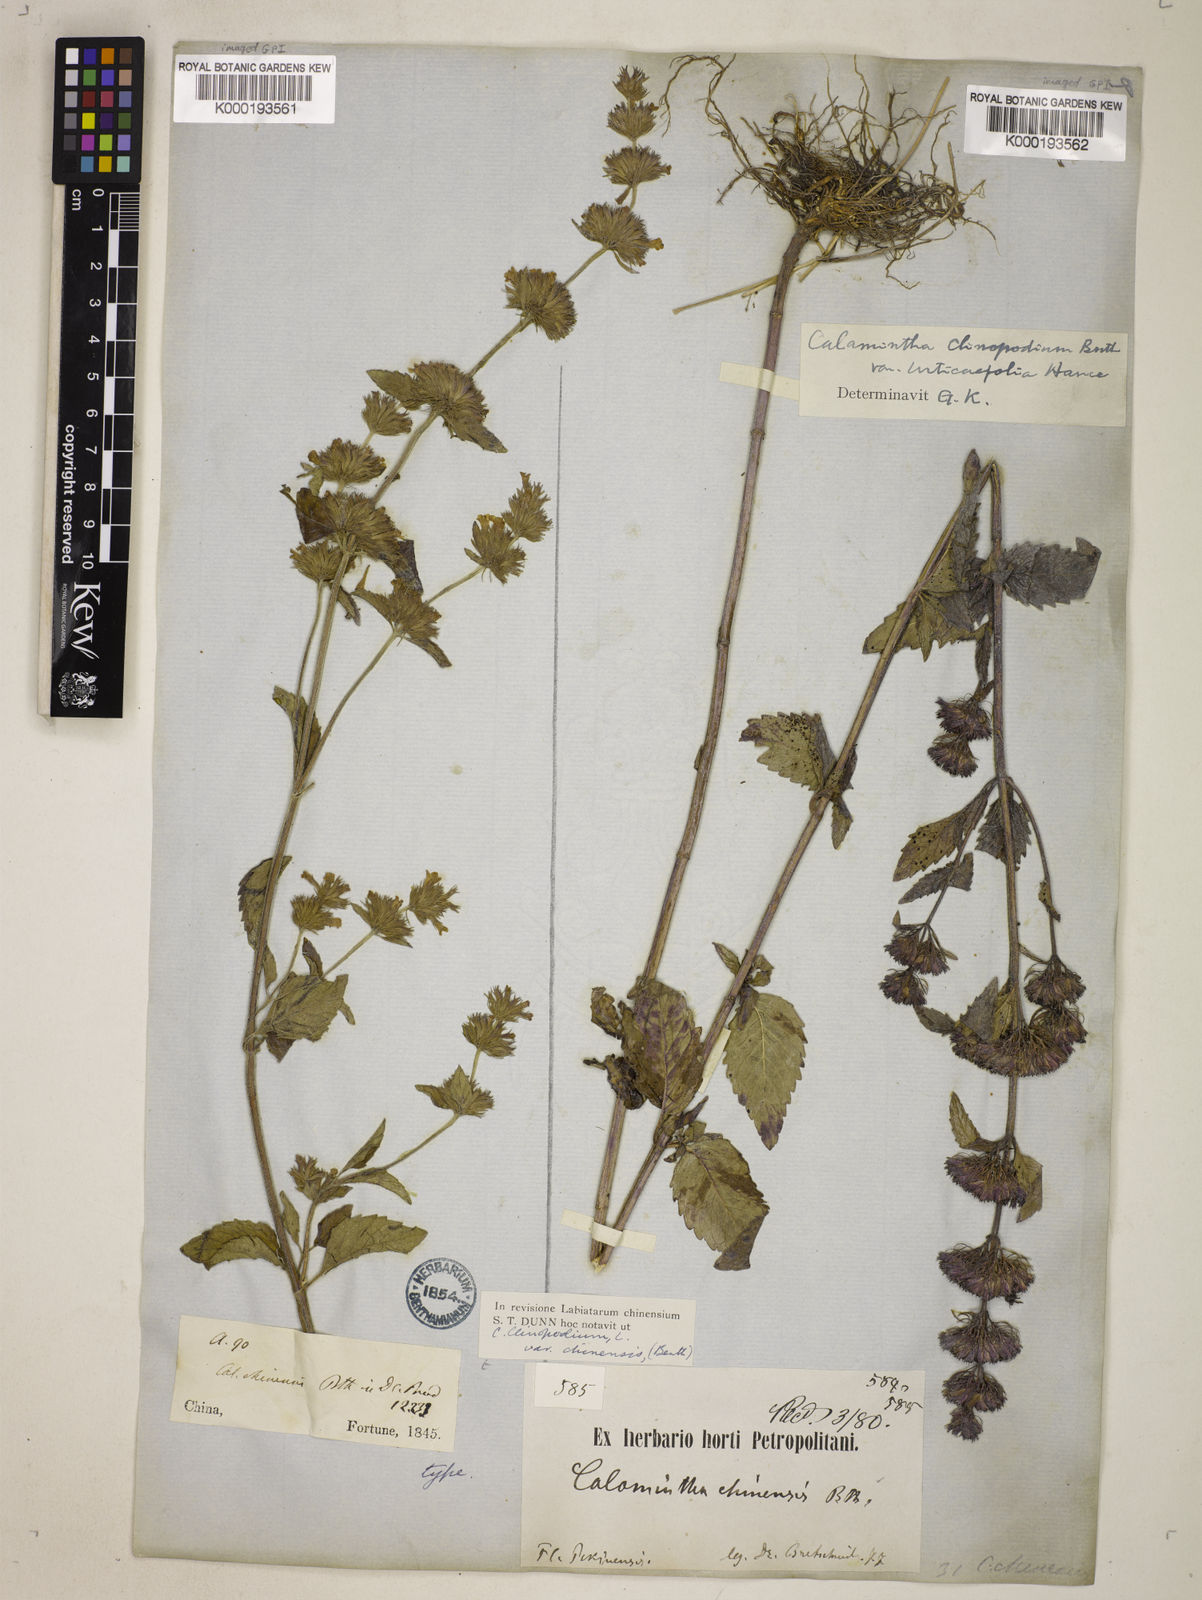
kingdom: Plantae
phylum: Tracheophyta
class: Magnoliopsida
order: Lamiales
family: Lamiaceae
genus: Clinopodium
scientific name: Clinopodium chinense
